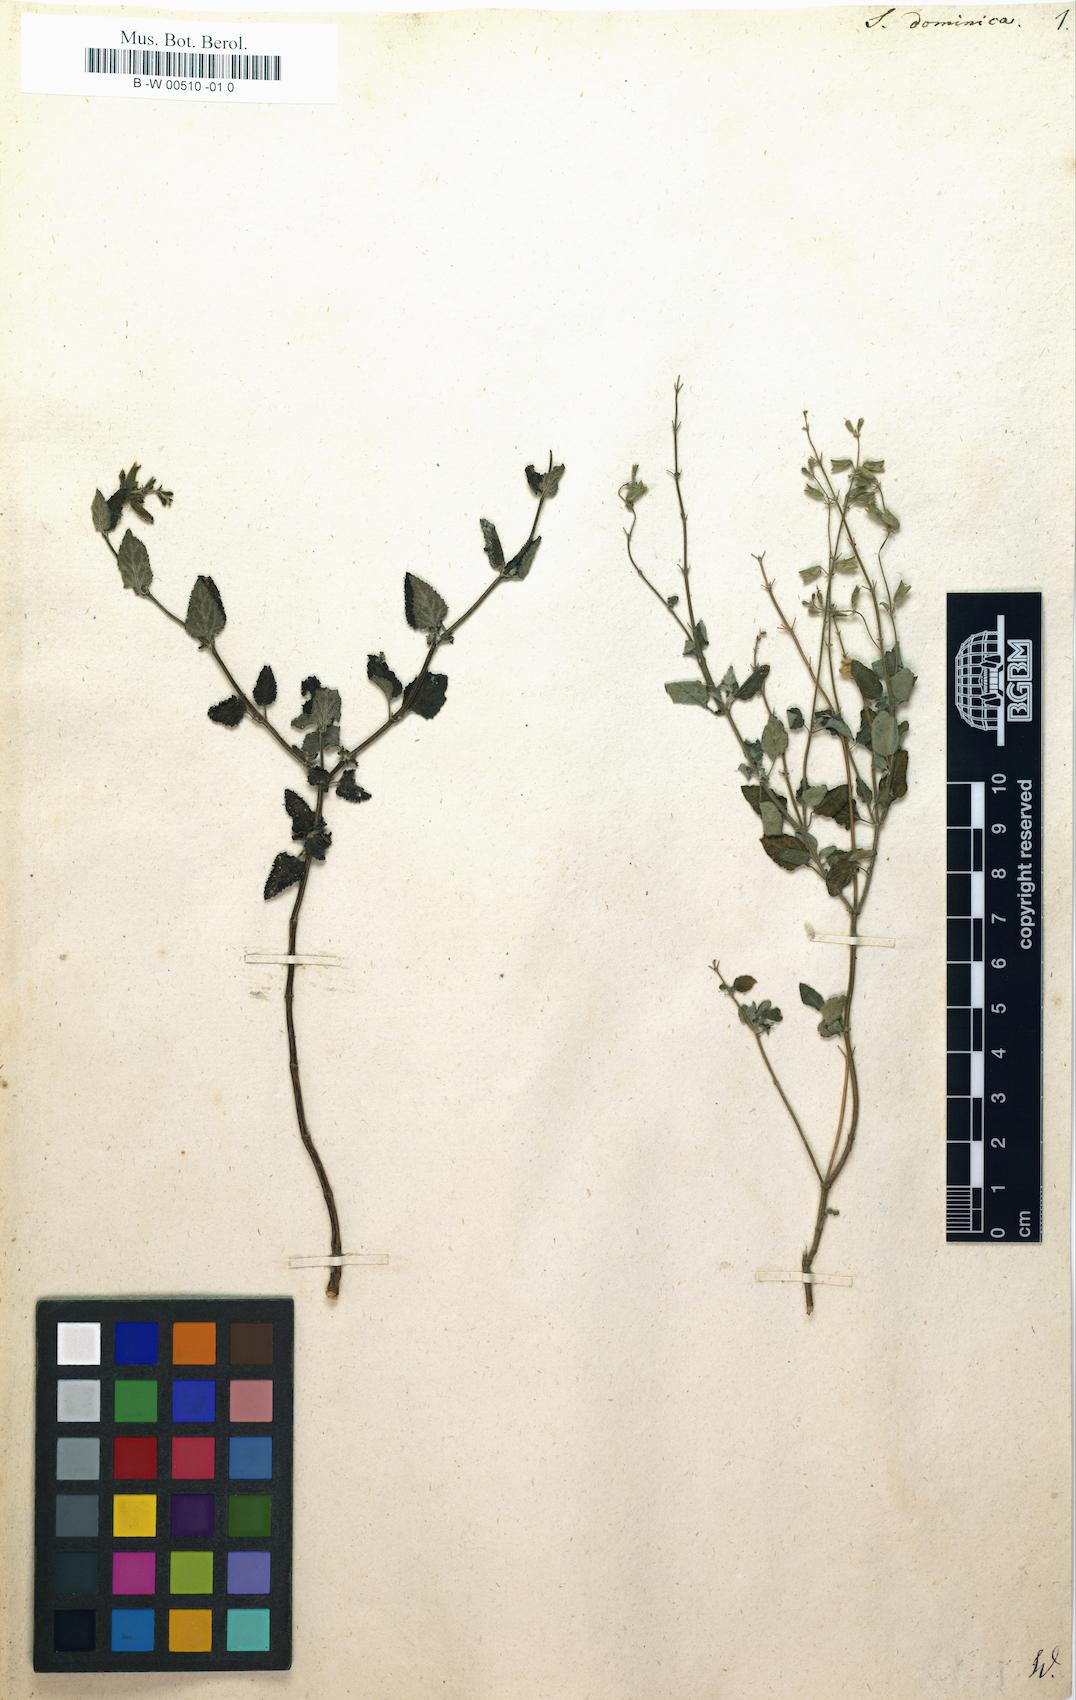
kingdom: Plantae
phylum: Tracheophyta
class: Magnoliopsida
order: Lamiales
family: Lamiaceae
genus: Salvia
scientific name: Salvia dominica
